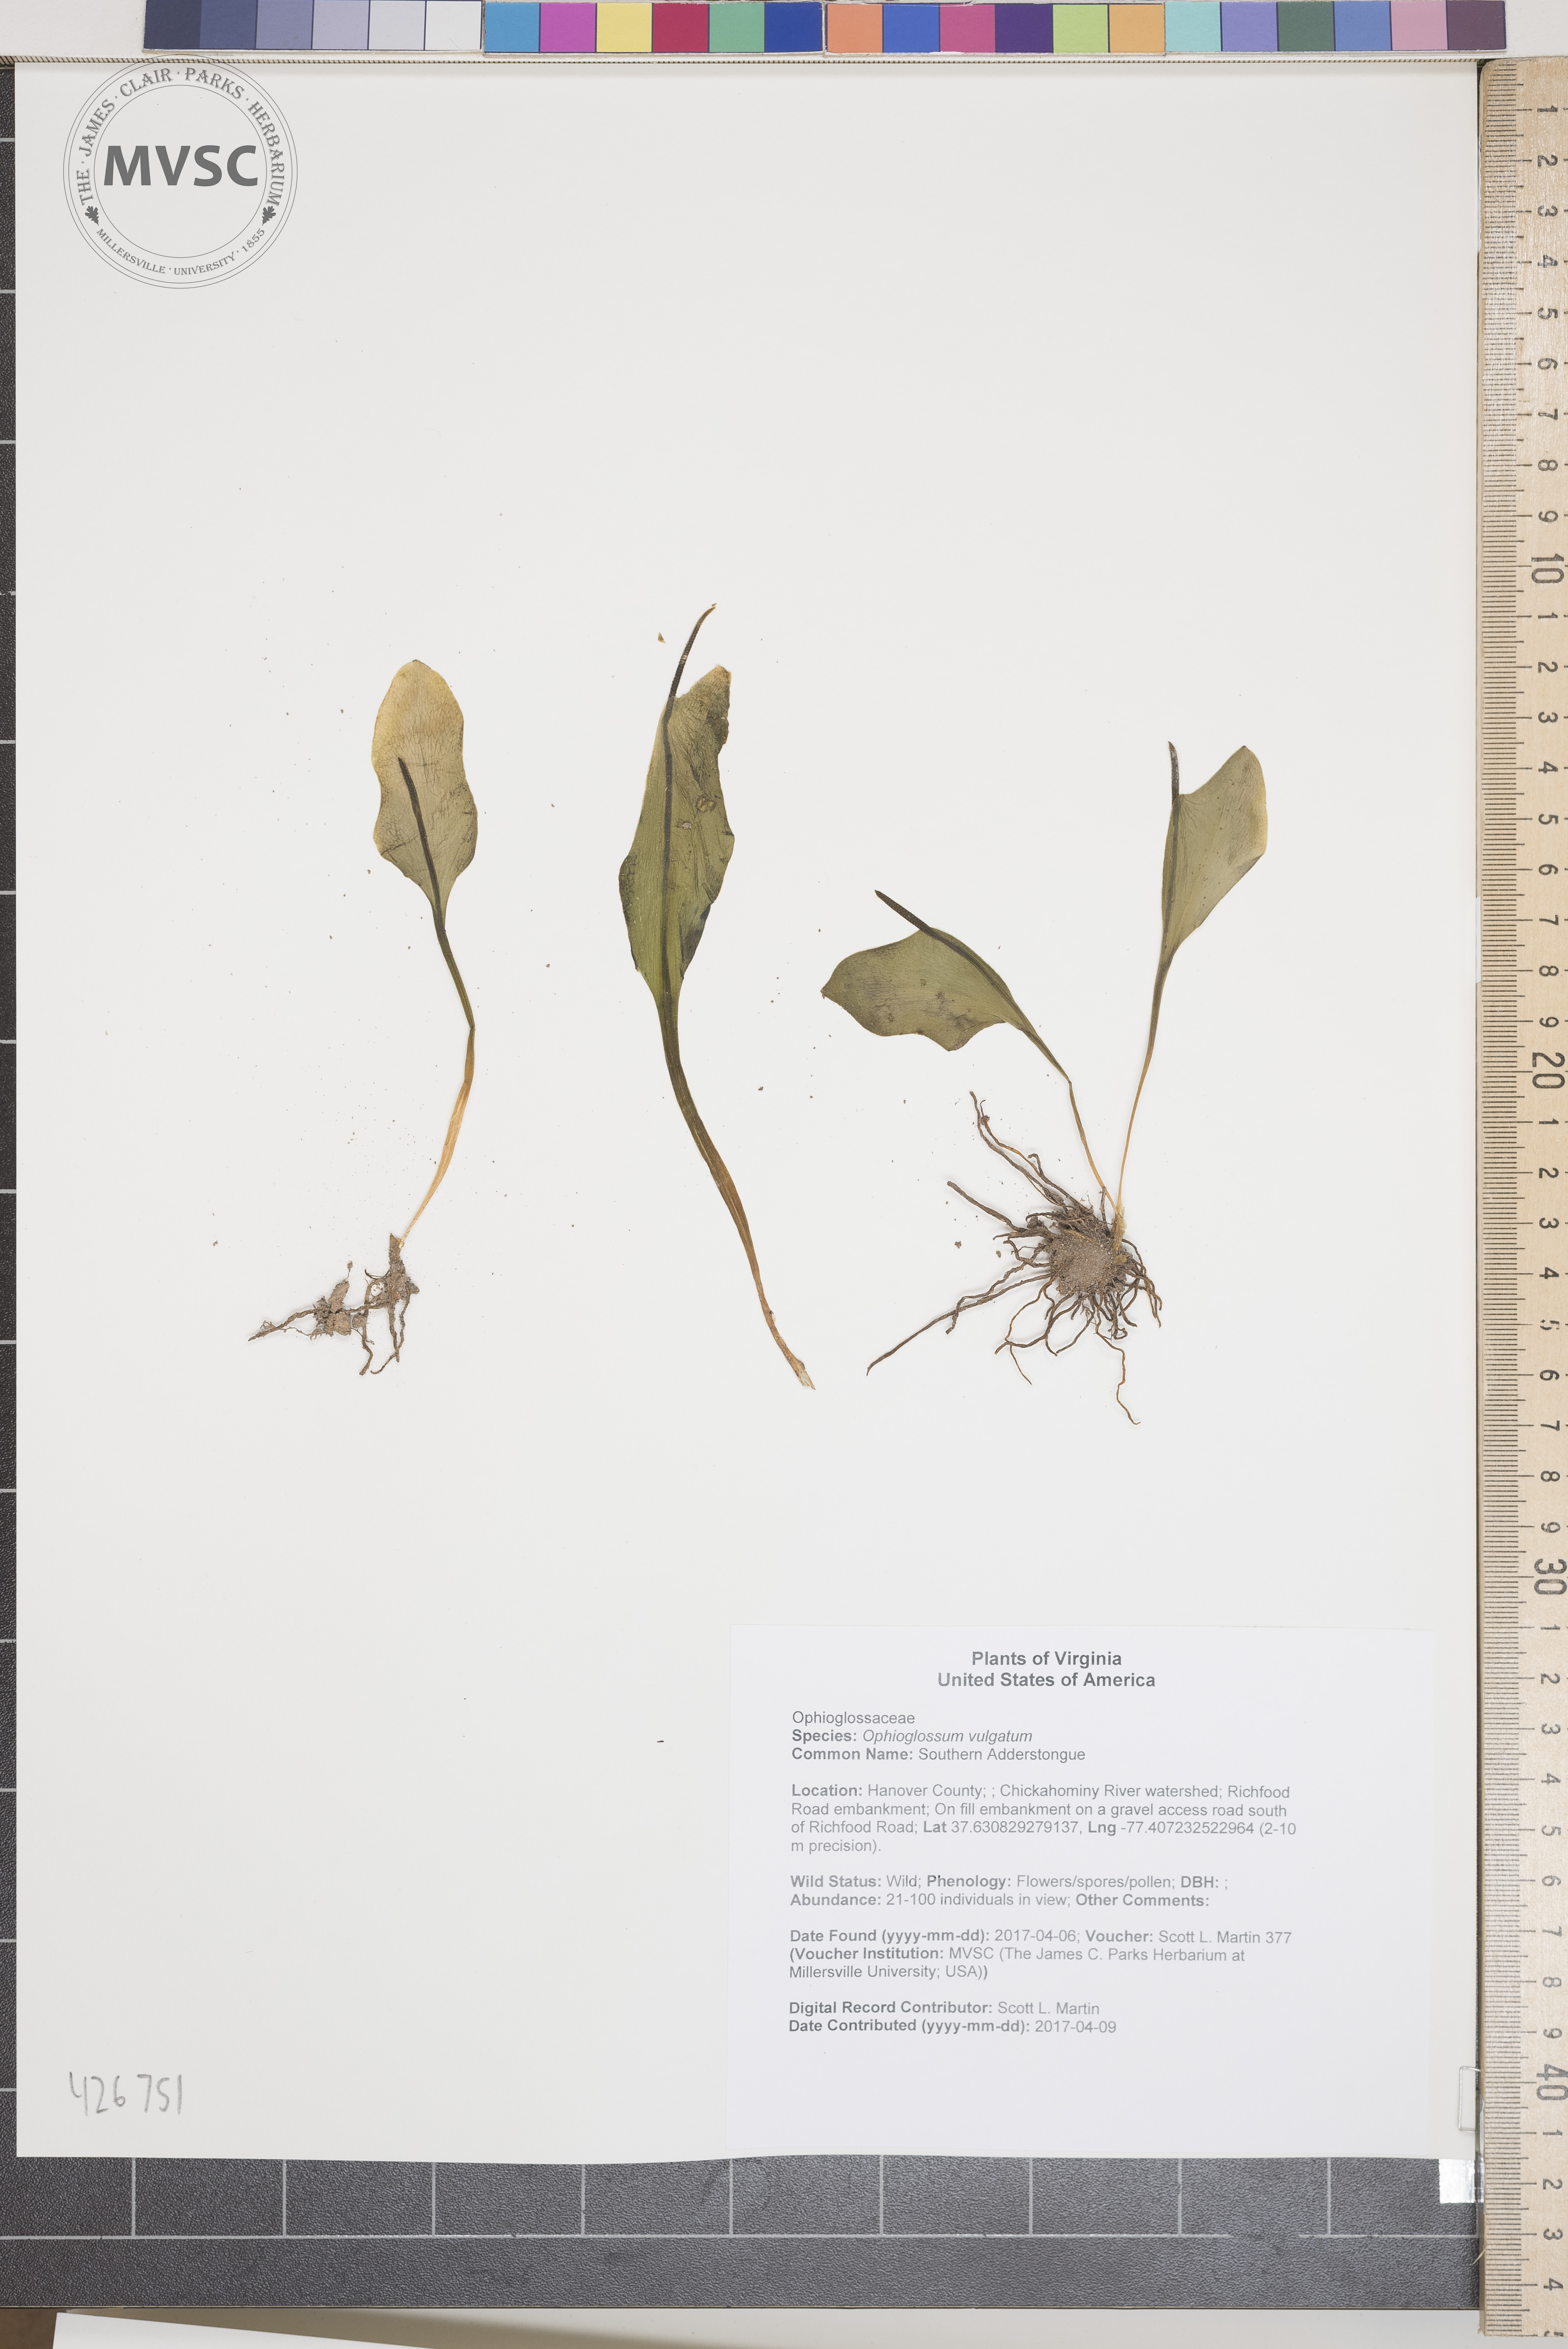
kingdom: Plantae
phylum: Tracheophyta
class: Polypodiopsida
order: Ophioglossales
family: Ophioglossaceae
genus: Ophioglossum
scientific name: Ophioglossum vulgatum
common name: Southern Adderstongue
